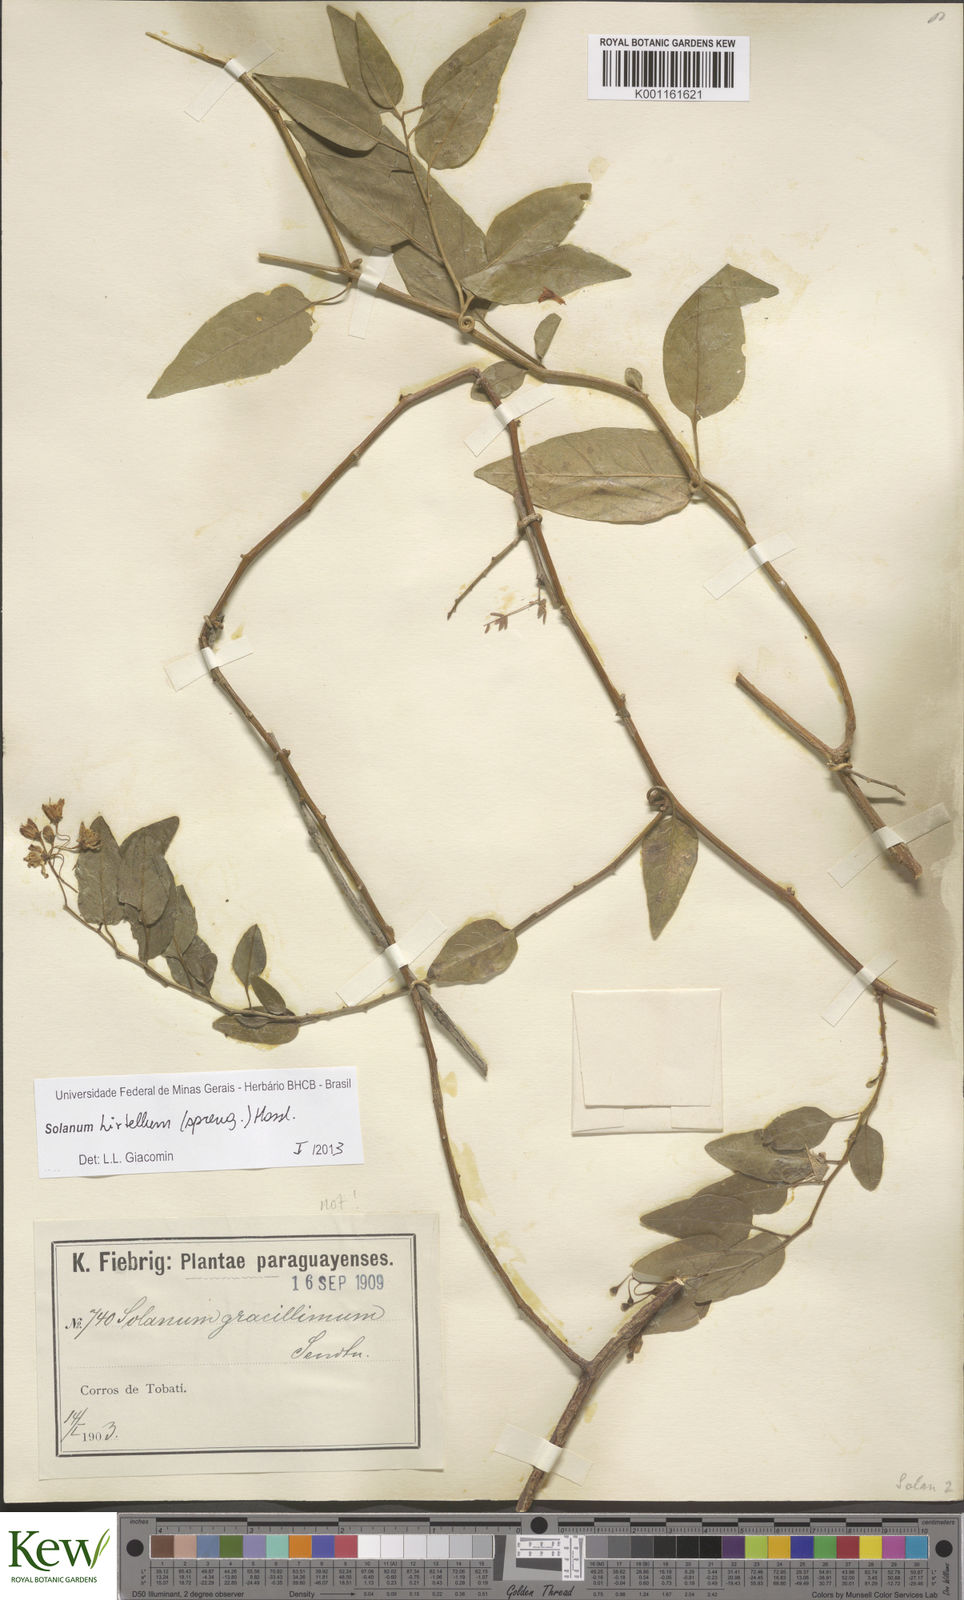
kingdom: Plantae
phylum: Tracheophyta
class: Magnoliopsida
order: Solanales
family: Solanaceae
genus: Solanum
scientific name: Solanum hirtellum
